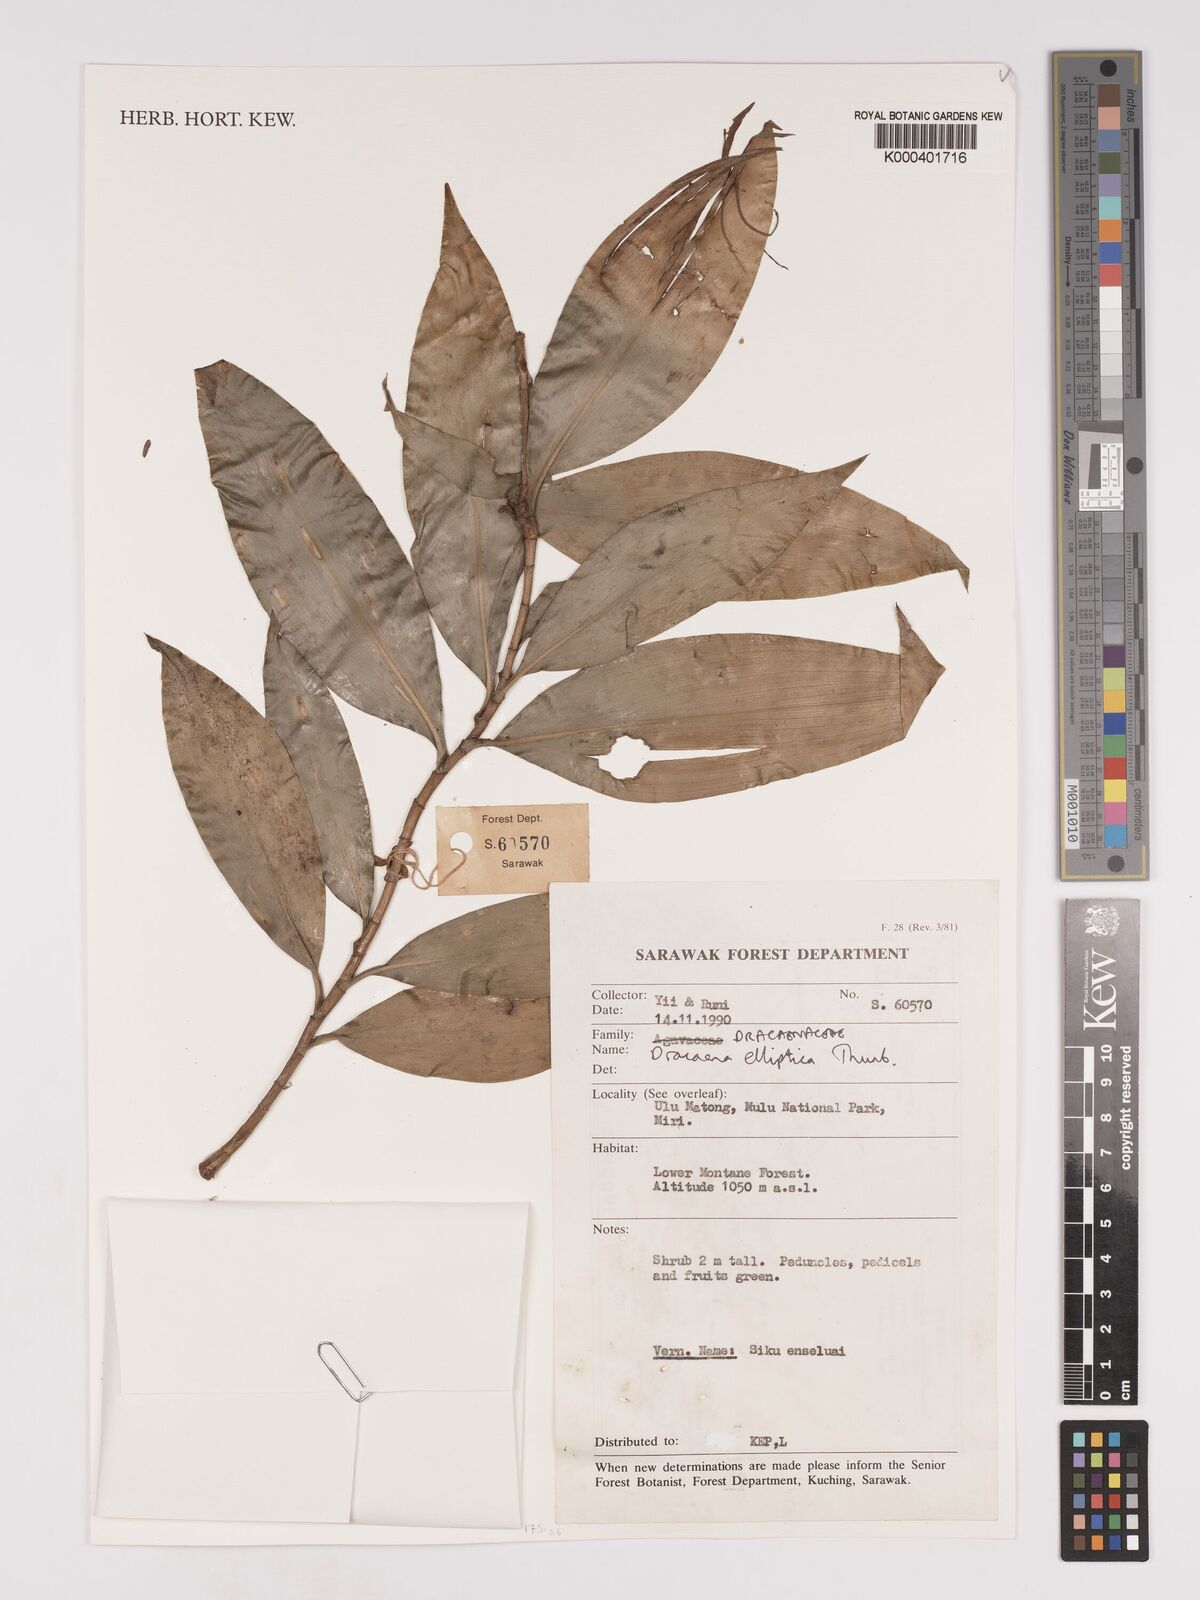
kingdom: Plantae
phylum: Tracheophyta
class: Liliopsida
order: Asparagales
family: Asparagaceae
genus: Dracaena
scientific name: Dracaena elliptica
